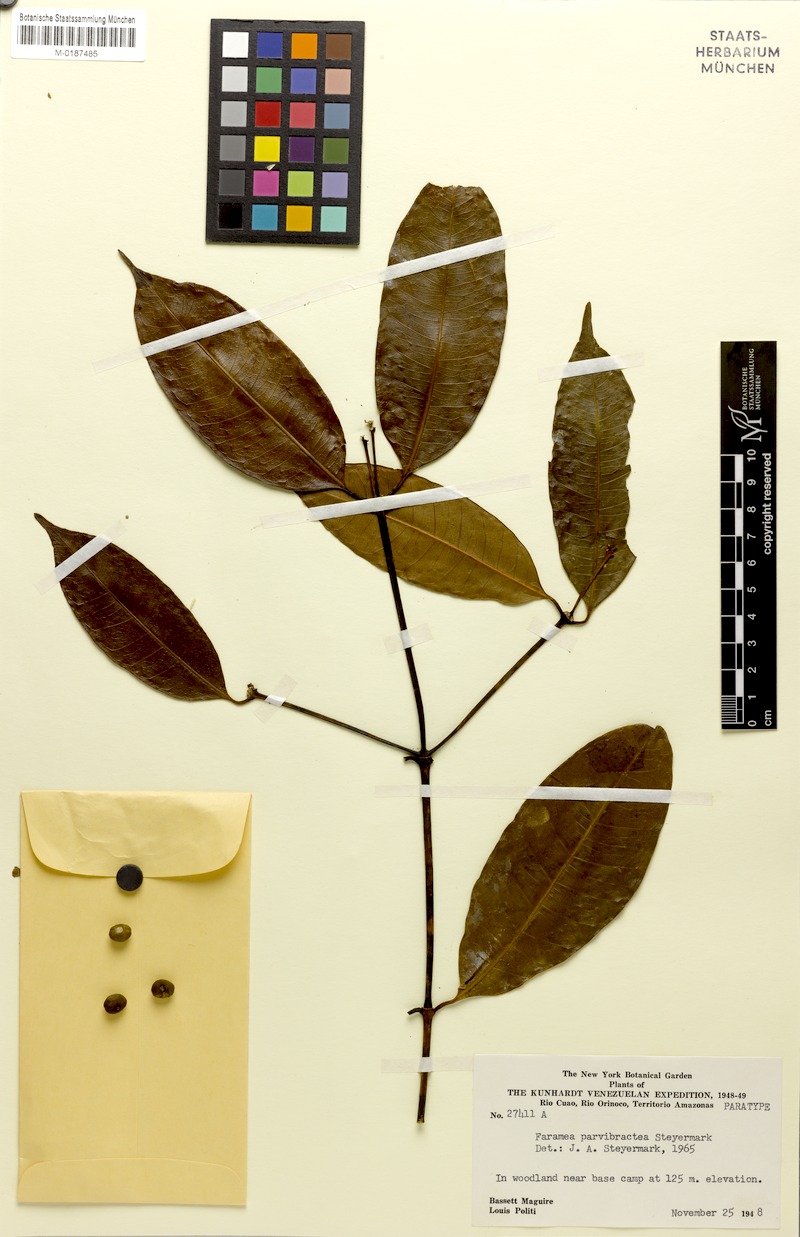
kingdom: Plantae
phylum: Tracheophyta
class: Magnoliopsida
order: Gentianales
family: Rubiaceae
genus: Faramea
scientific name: Faramea parvibractea
